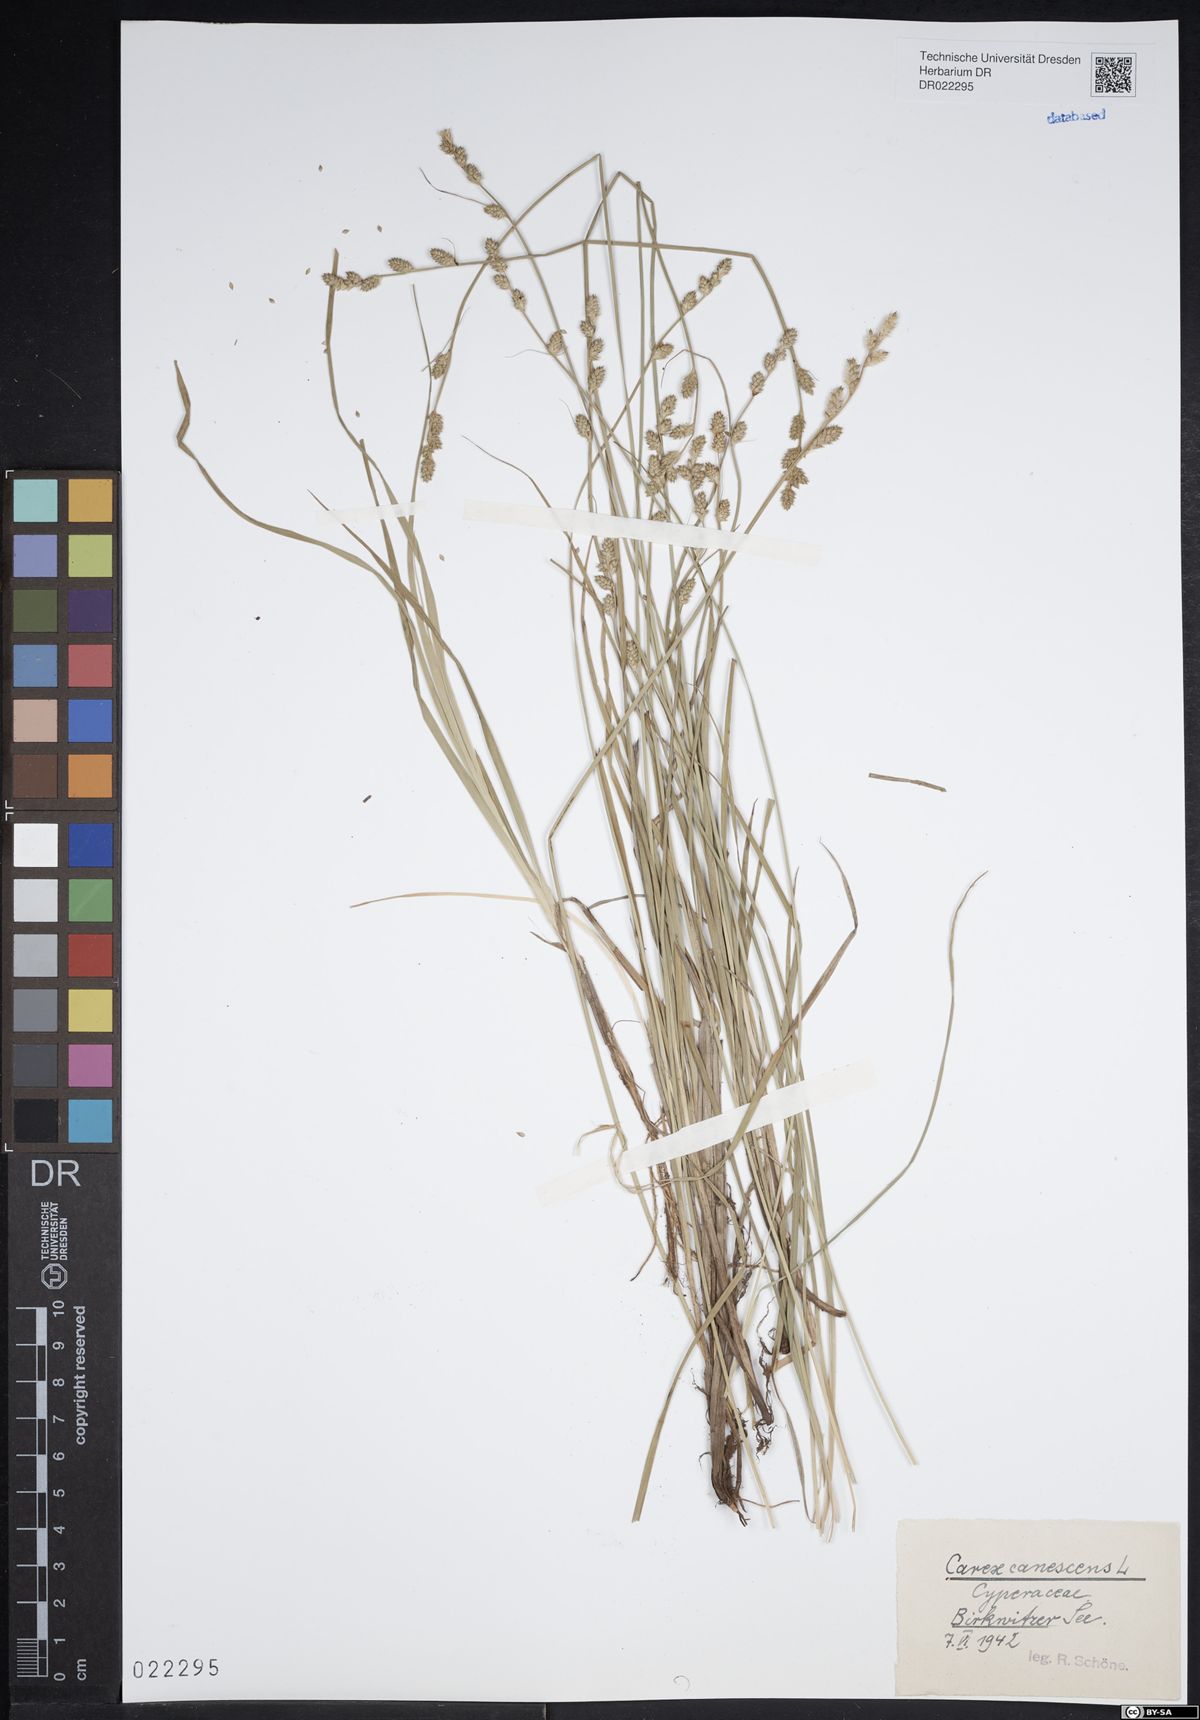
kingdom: Plantae
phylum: Tracheophyta
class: Liliopsida
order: Poales
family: Cyperaceae
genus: Carex
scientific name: Carex canescens
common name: White sedge
